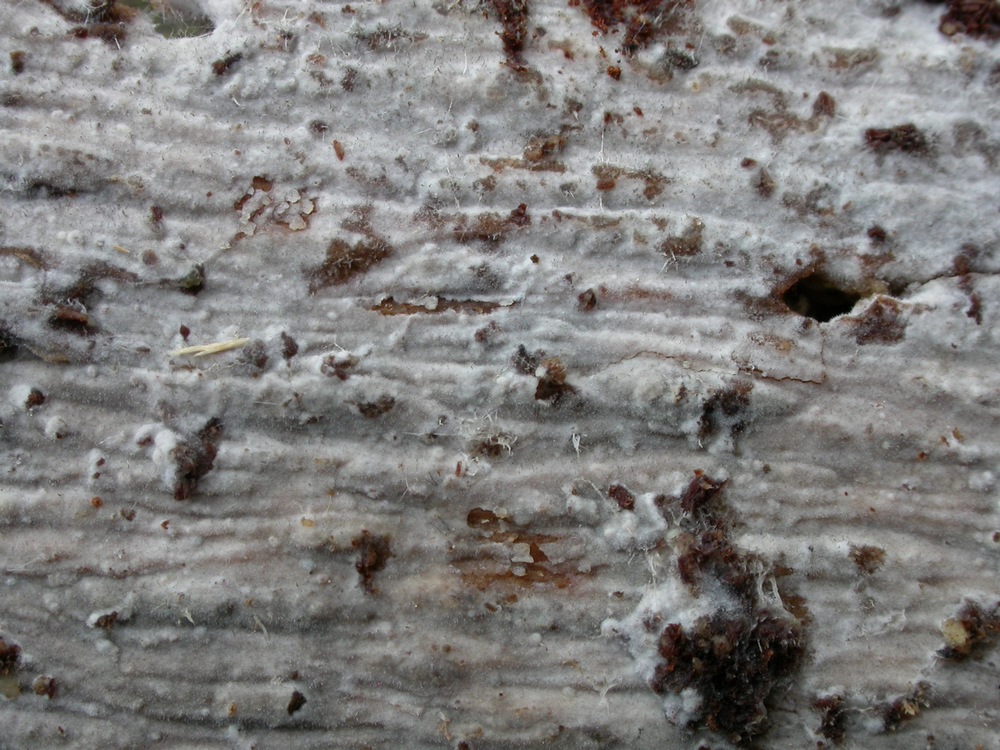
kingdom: Fungi
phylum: Basidiomycota
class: Agaricomycetes
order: Hymenochaetales
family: Rickenellaceae
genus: Peniophorella
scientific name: Peniophorella pubera
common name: dunet kalkskind
